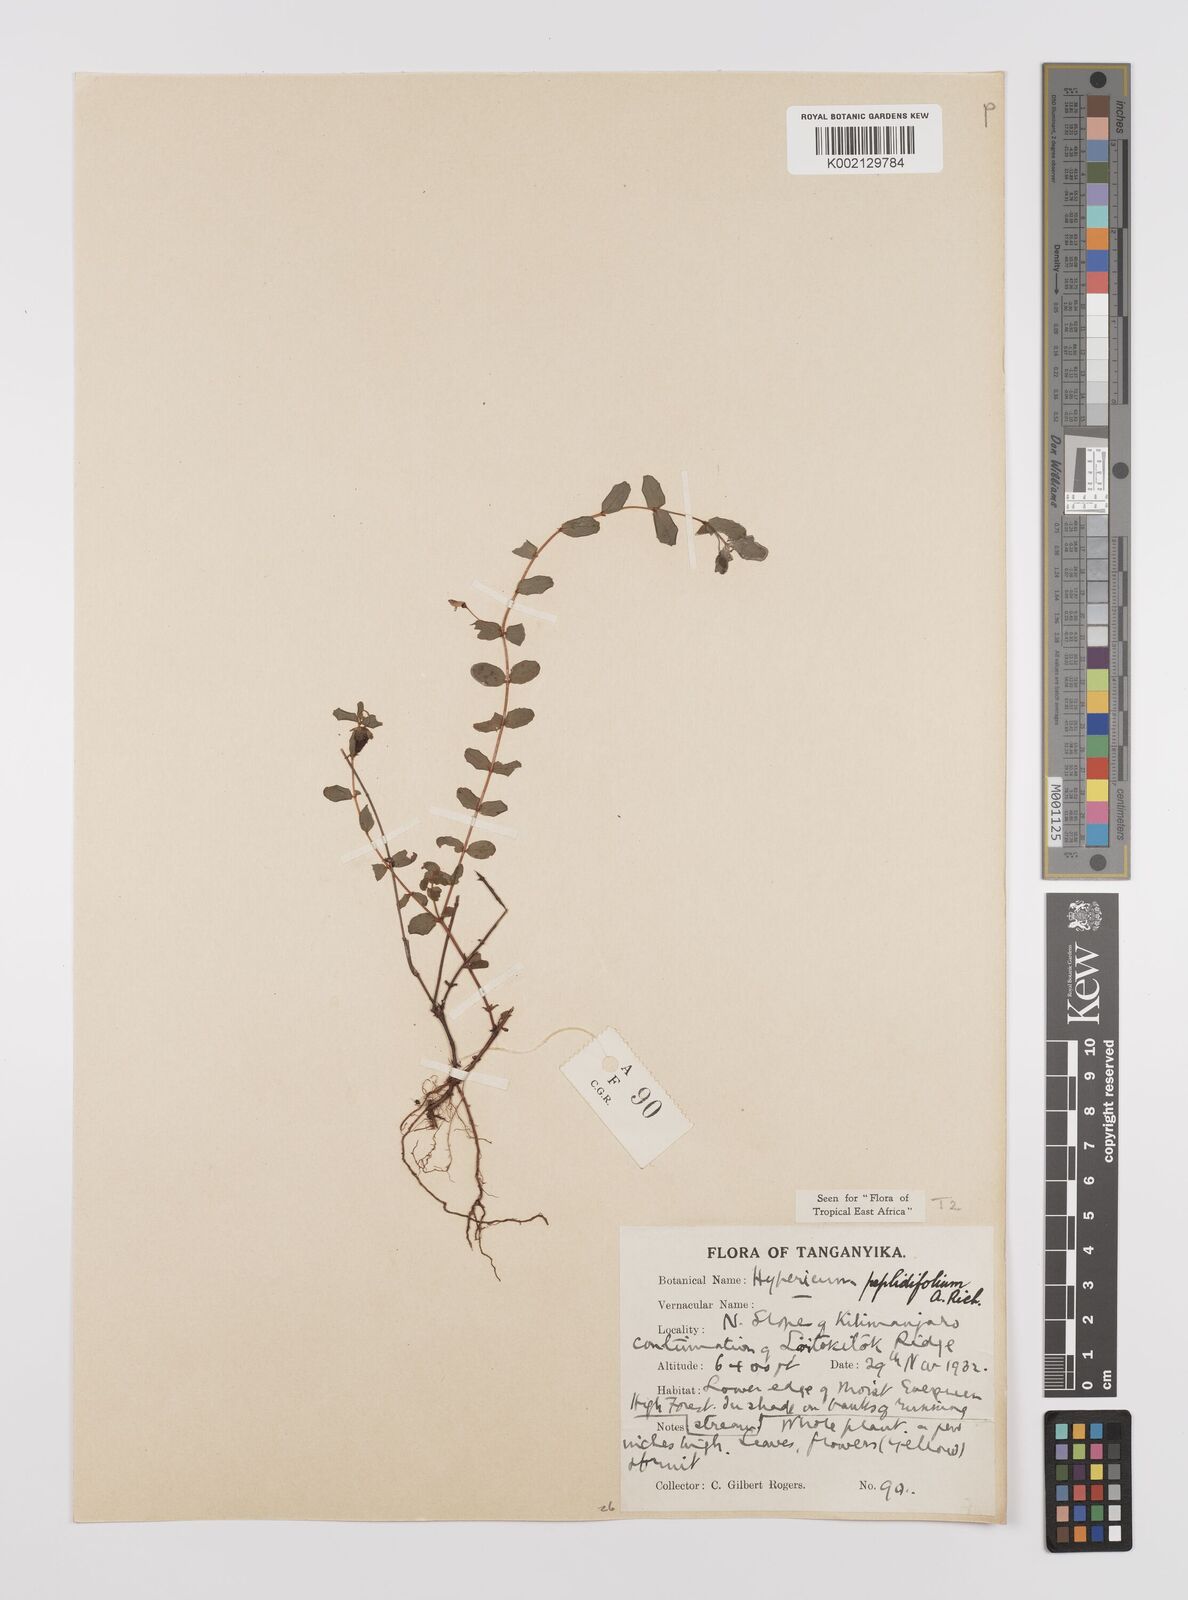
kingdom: Plantae
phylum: Tracheophyta
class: Magnoliopsida
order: Malpighiales
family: Hypericaceae
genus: Hypericum
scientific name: Hypericum peplidifolium
